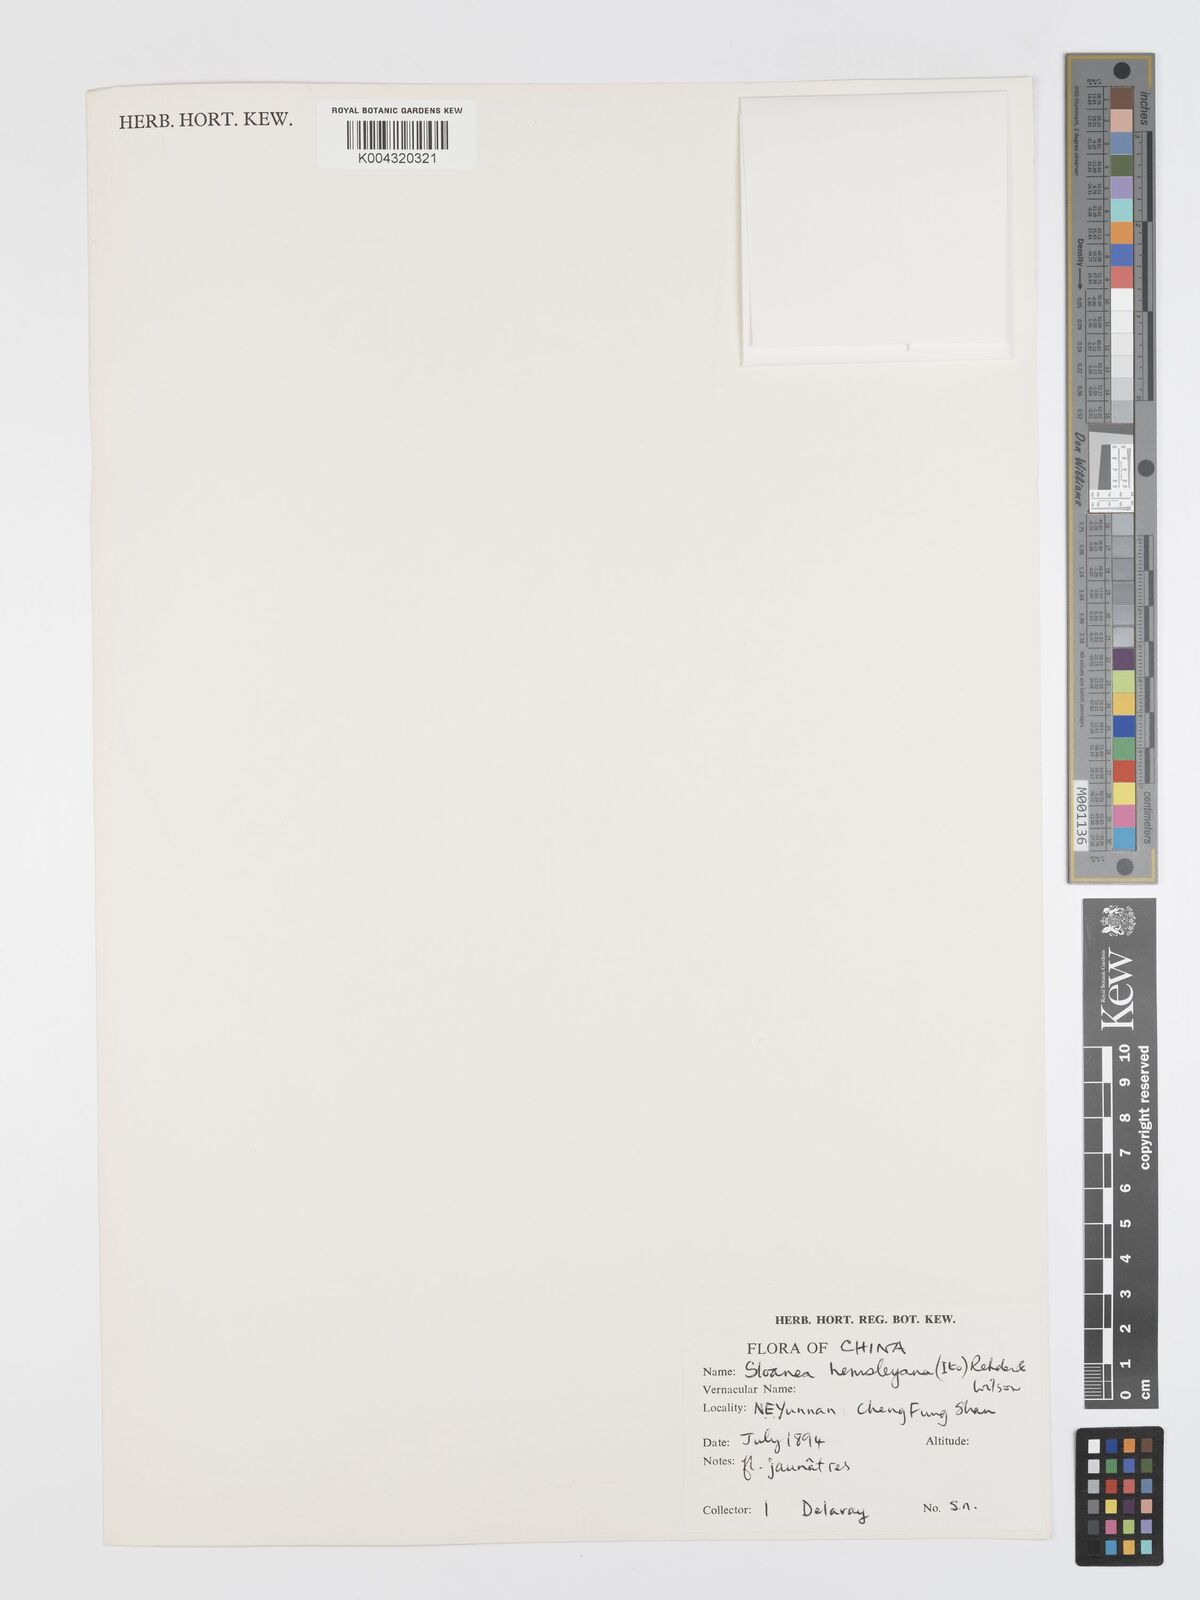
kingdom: Plantae
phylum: Tracheophyta
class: Magnoliopsida
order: Oxalidales
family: Elaeocarpaceae
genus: Sloanea
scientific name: Sloanea hemsleyana
